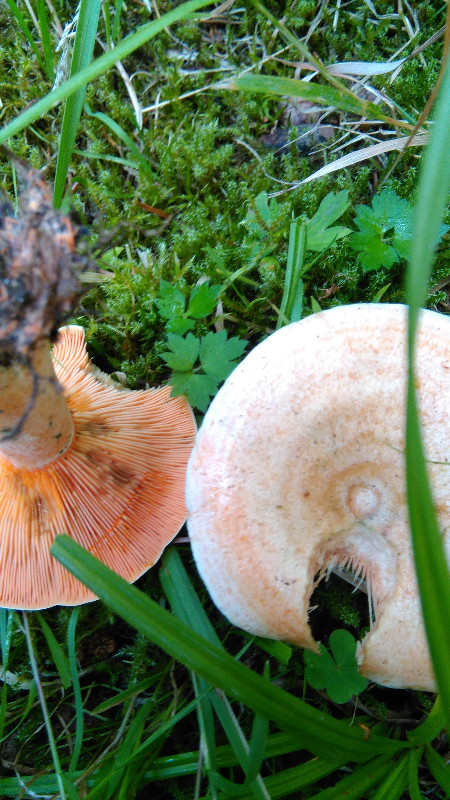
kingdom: Fungi
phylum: Basidiomycota
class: Agaricomycetes
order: Russulales
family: Russulaceae
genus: Lactarius
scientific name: Lactarius deterrimus
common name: gran-mælkehat
